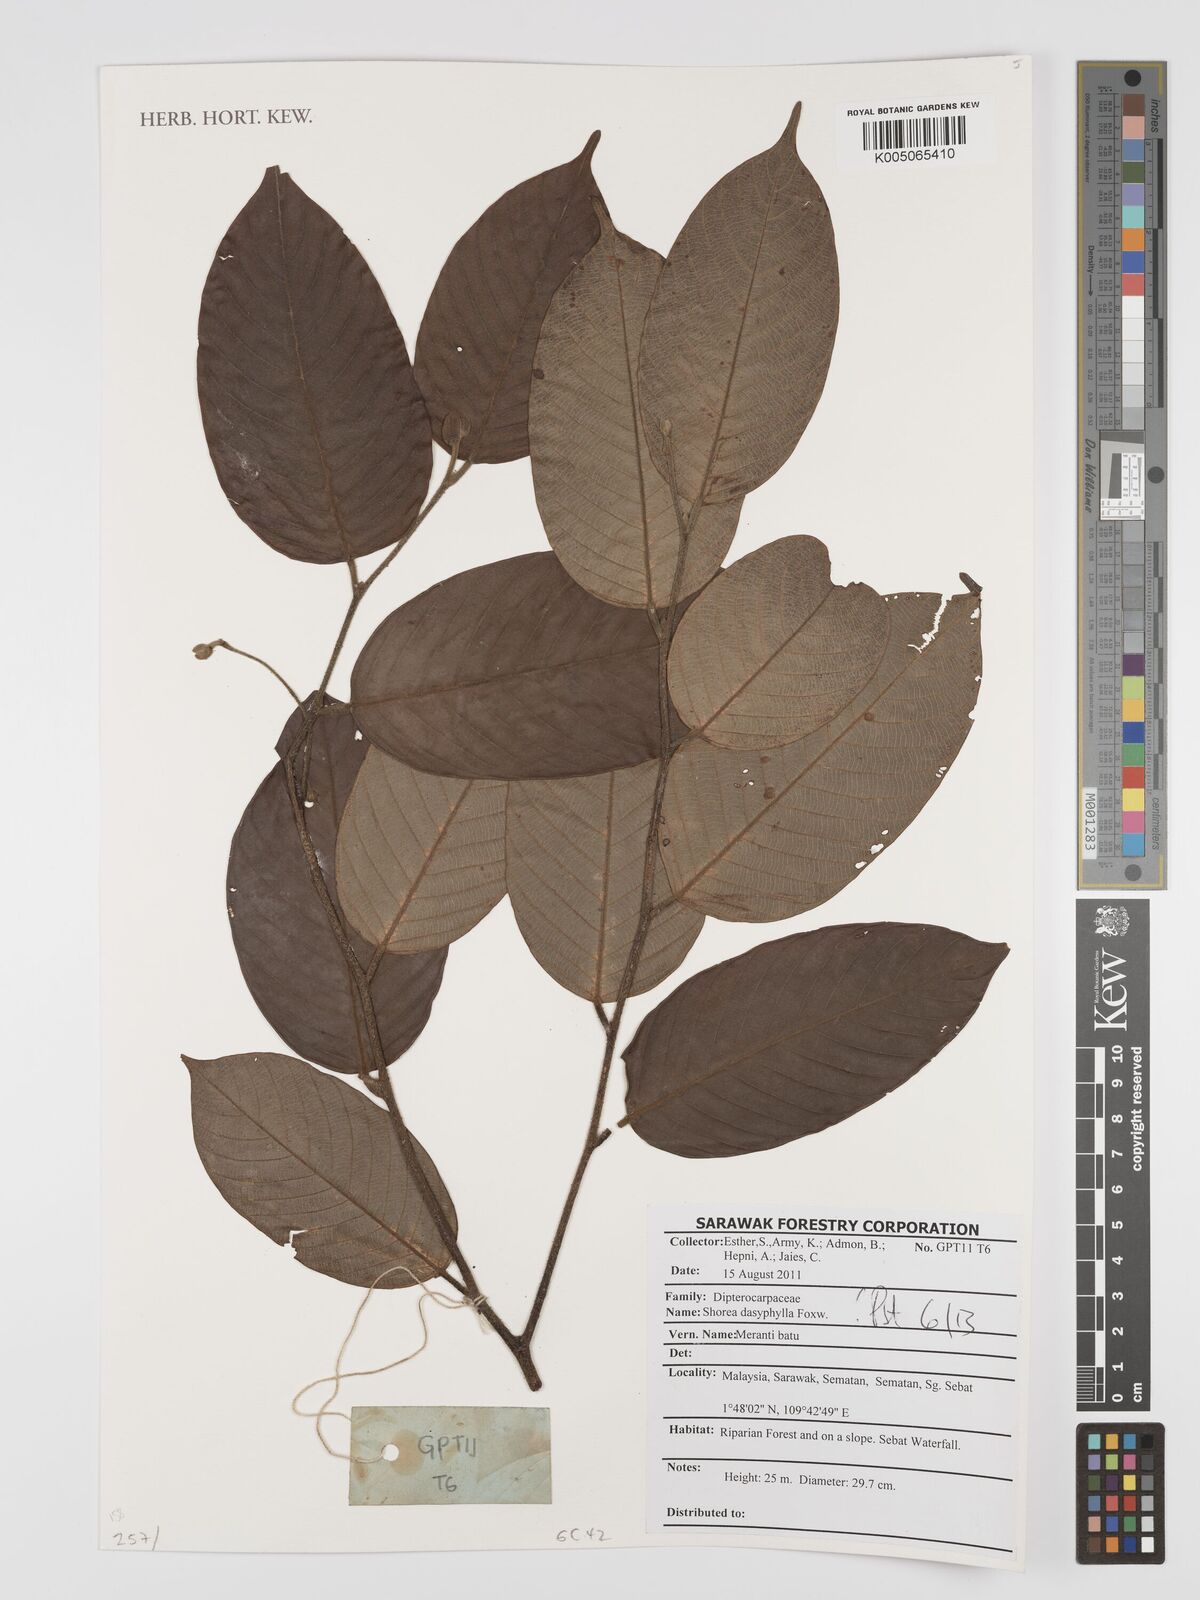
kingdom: Plantae
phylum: Tracheophyta
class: Magnoliopsida
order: Malvales
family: Dipterocarpaceae
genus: Shorea
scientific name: Shorea dasyphylla
